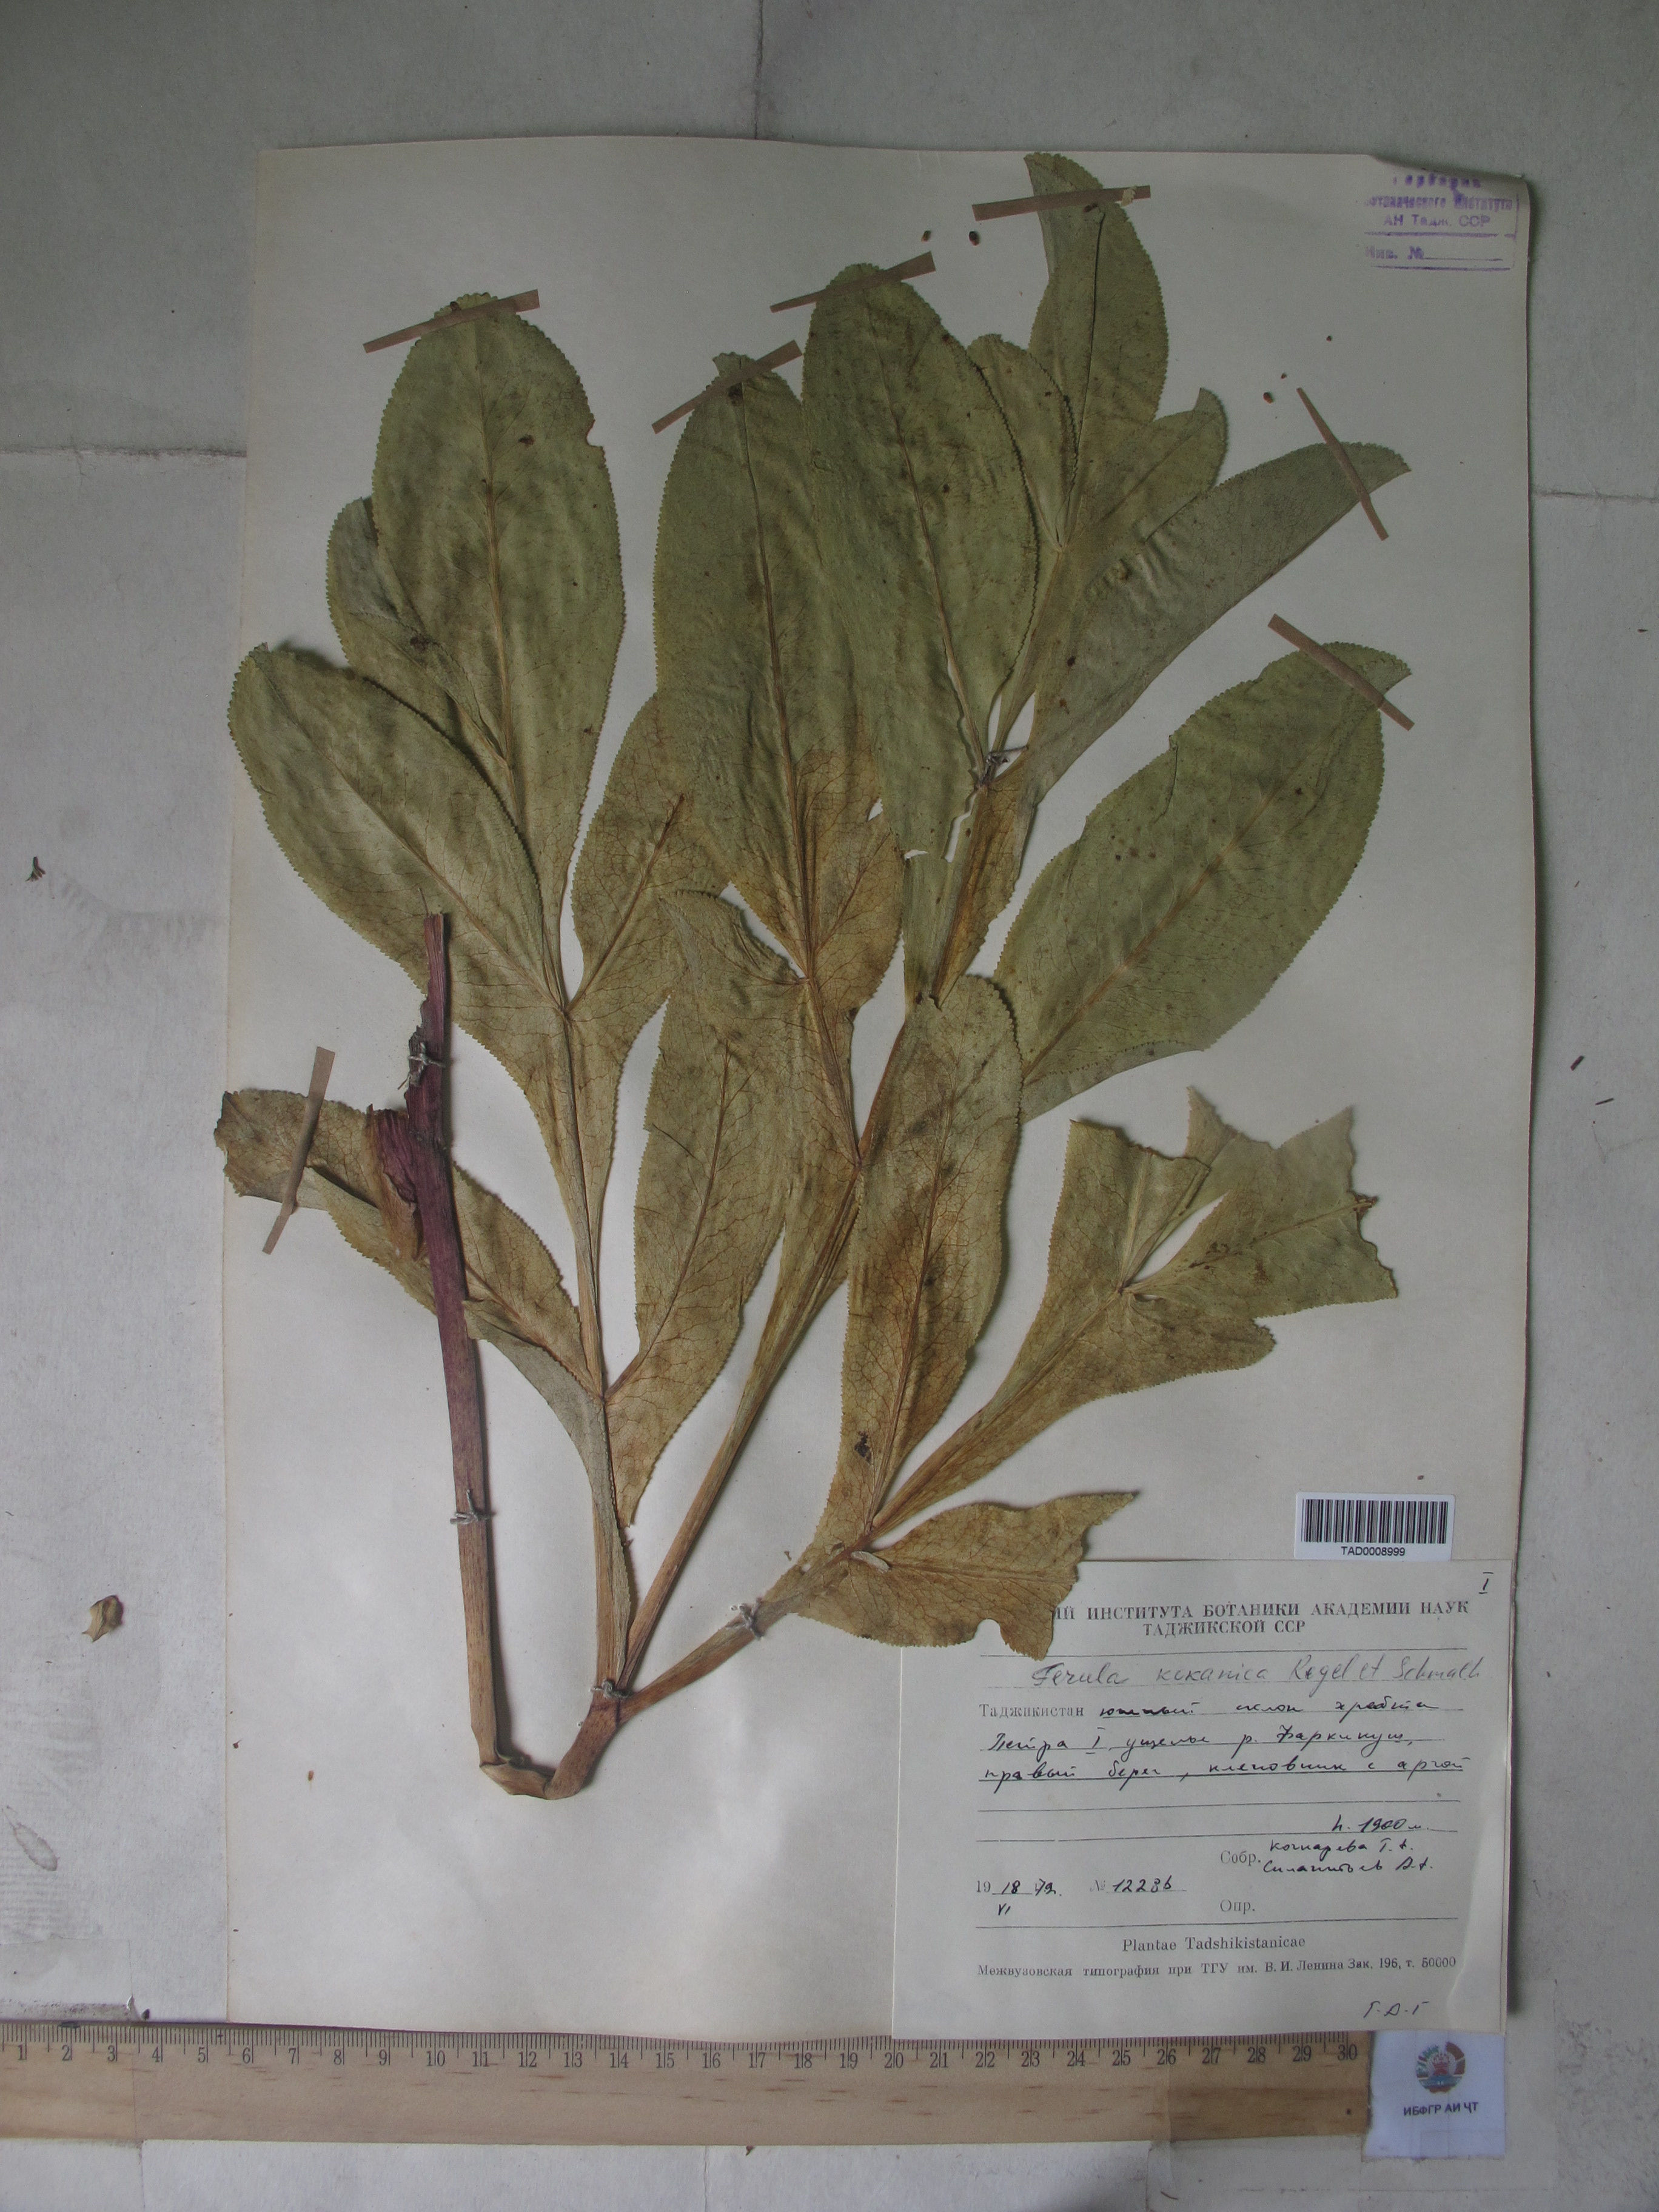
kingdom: Plantae
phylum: Tracheophyta
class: Magnoliopsida
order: Apiales
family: Apiaceae
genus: Ferula
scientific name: Ferula kokanica
